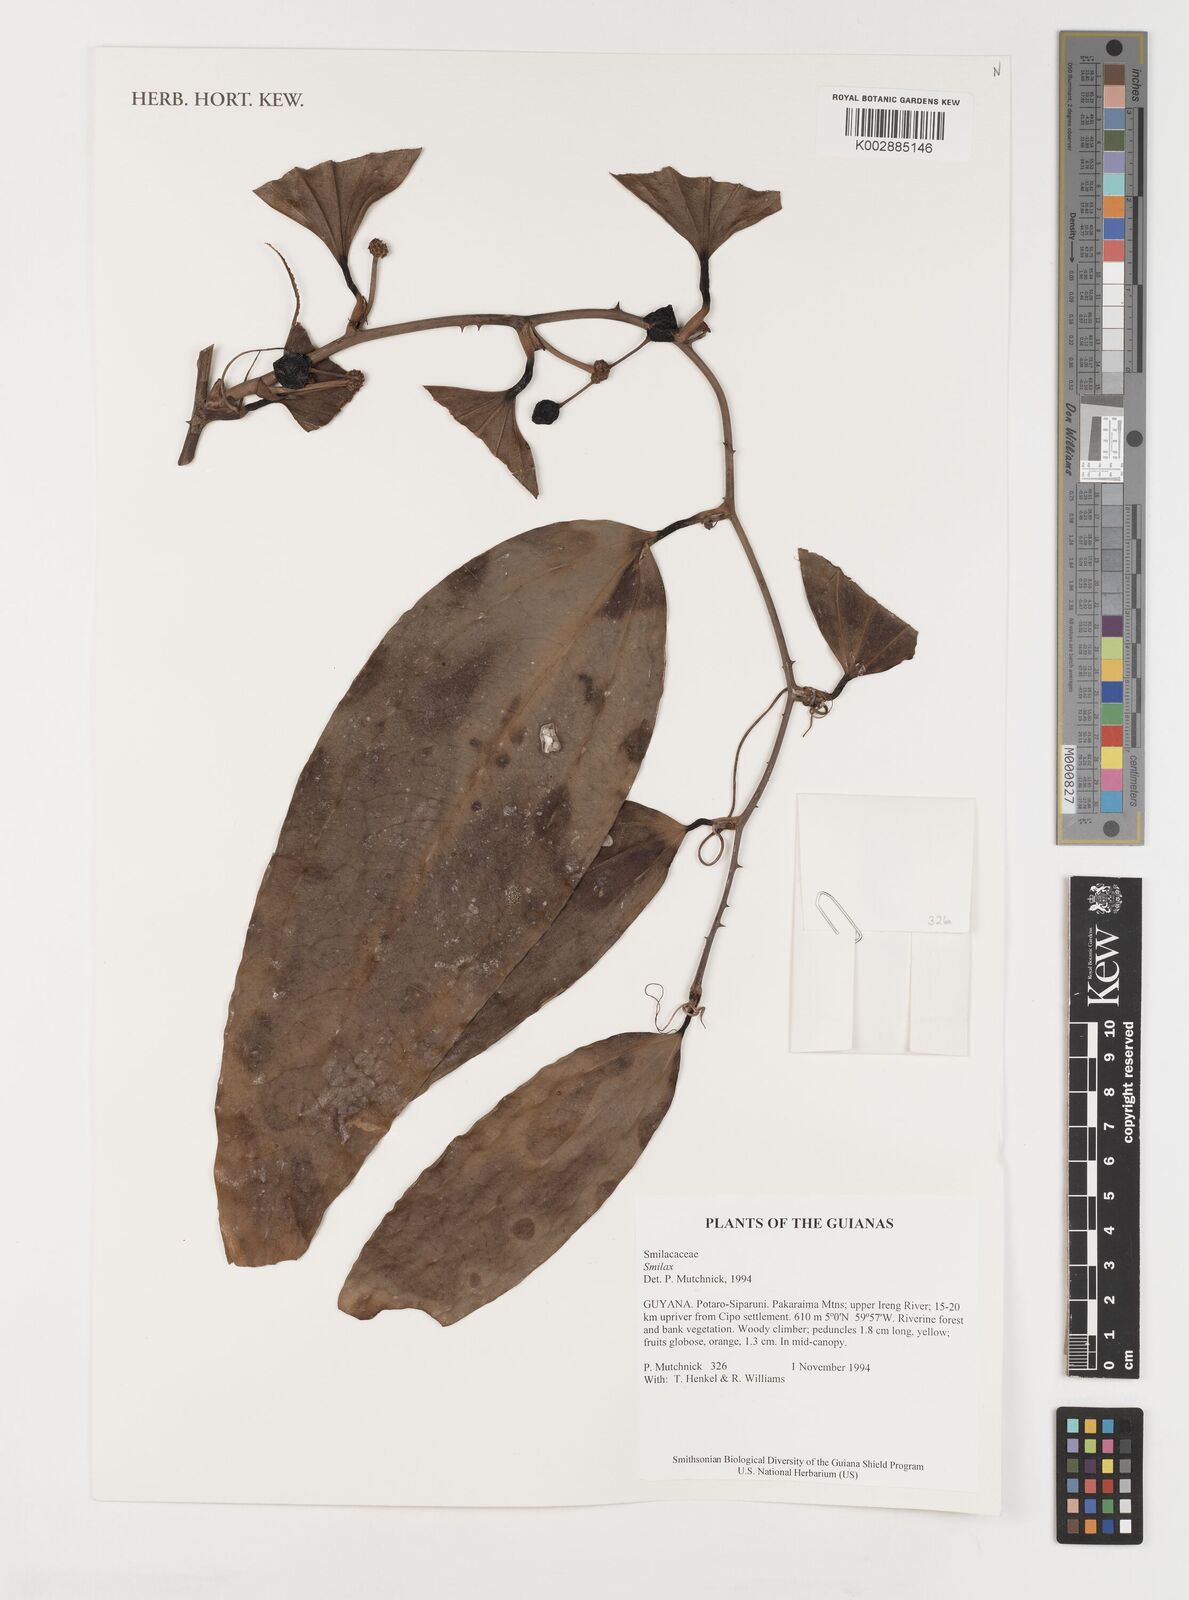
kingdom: Plantae
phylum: Tracheophyta
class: Liliopsida
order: Liliales
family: Smilacaceae
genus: Smilax
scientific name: Smilax
